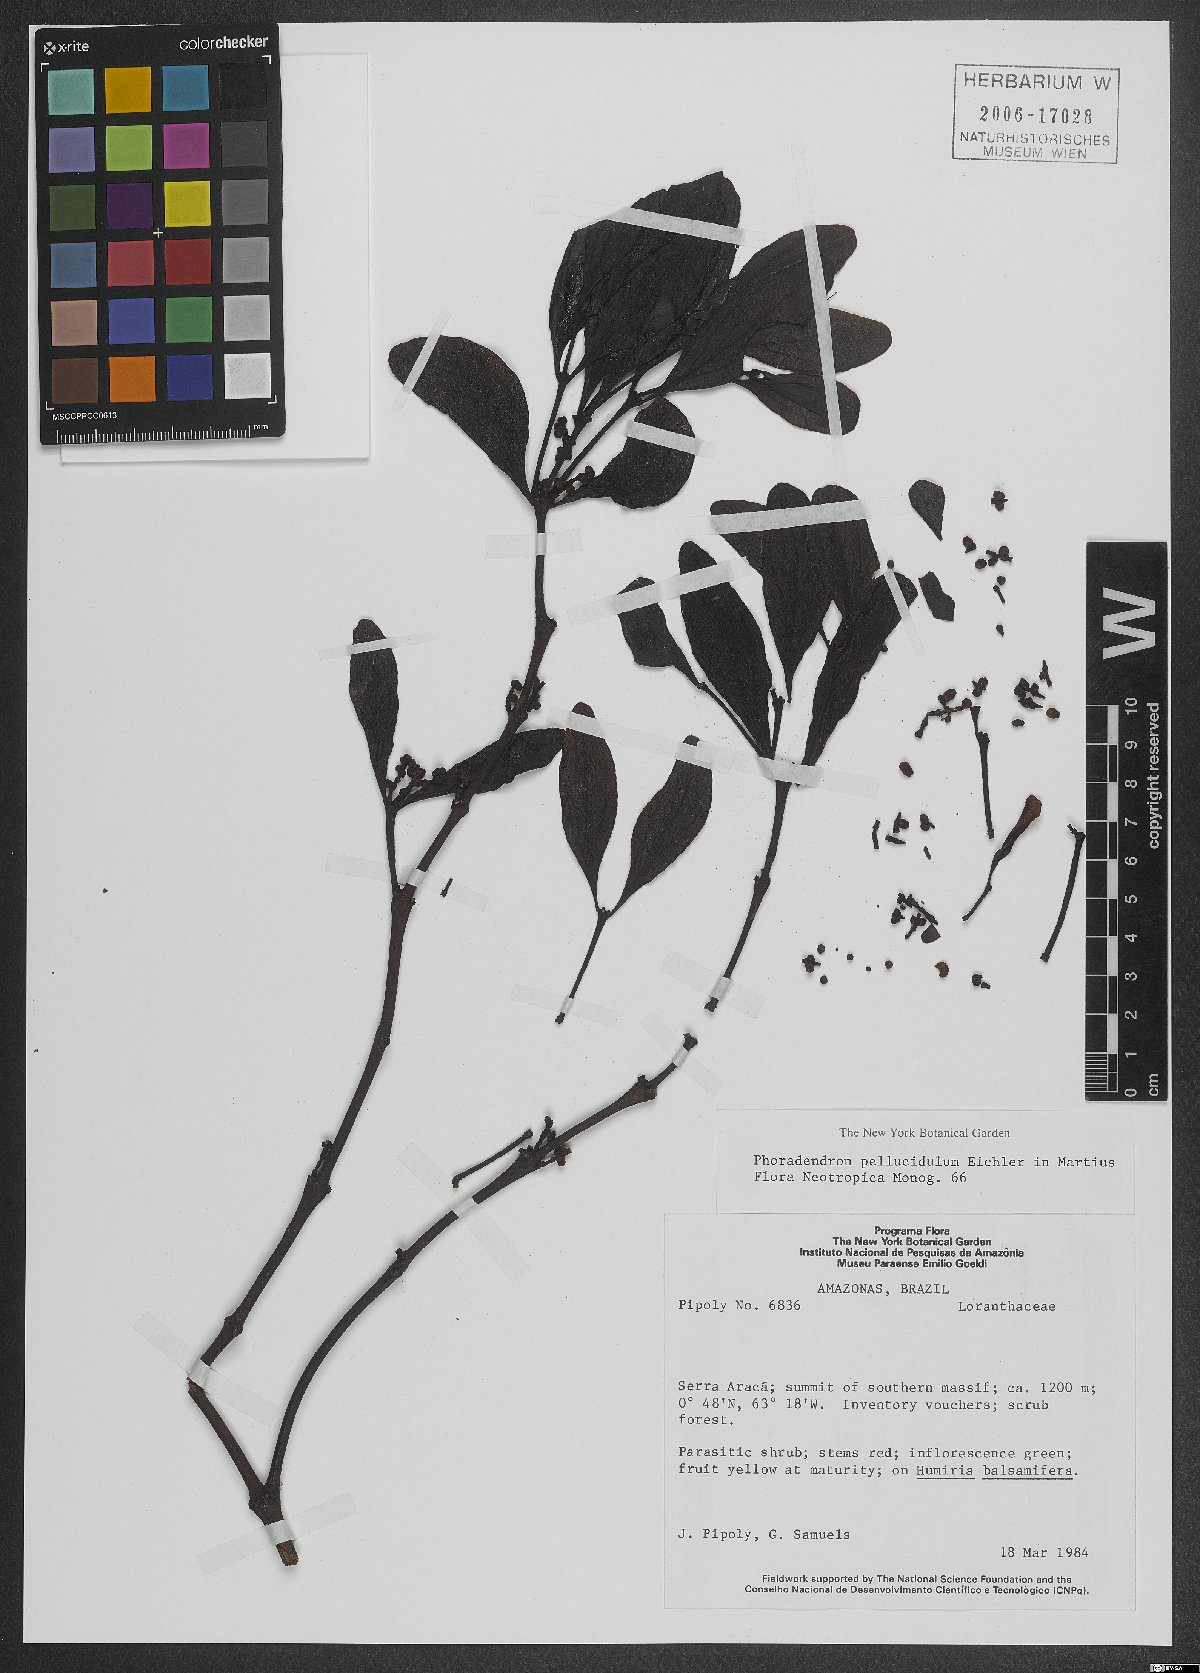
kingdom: Plantae
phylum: Tracheophyta
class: Magnoliopsida
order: Santalales
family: Viscaceae
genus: Phoradendron
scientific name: Phoradendron pellucidulum
